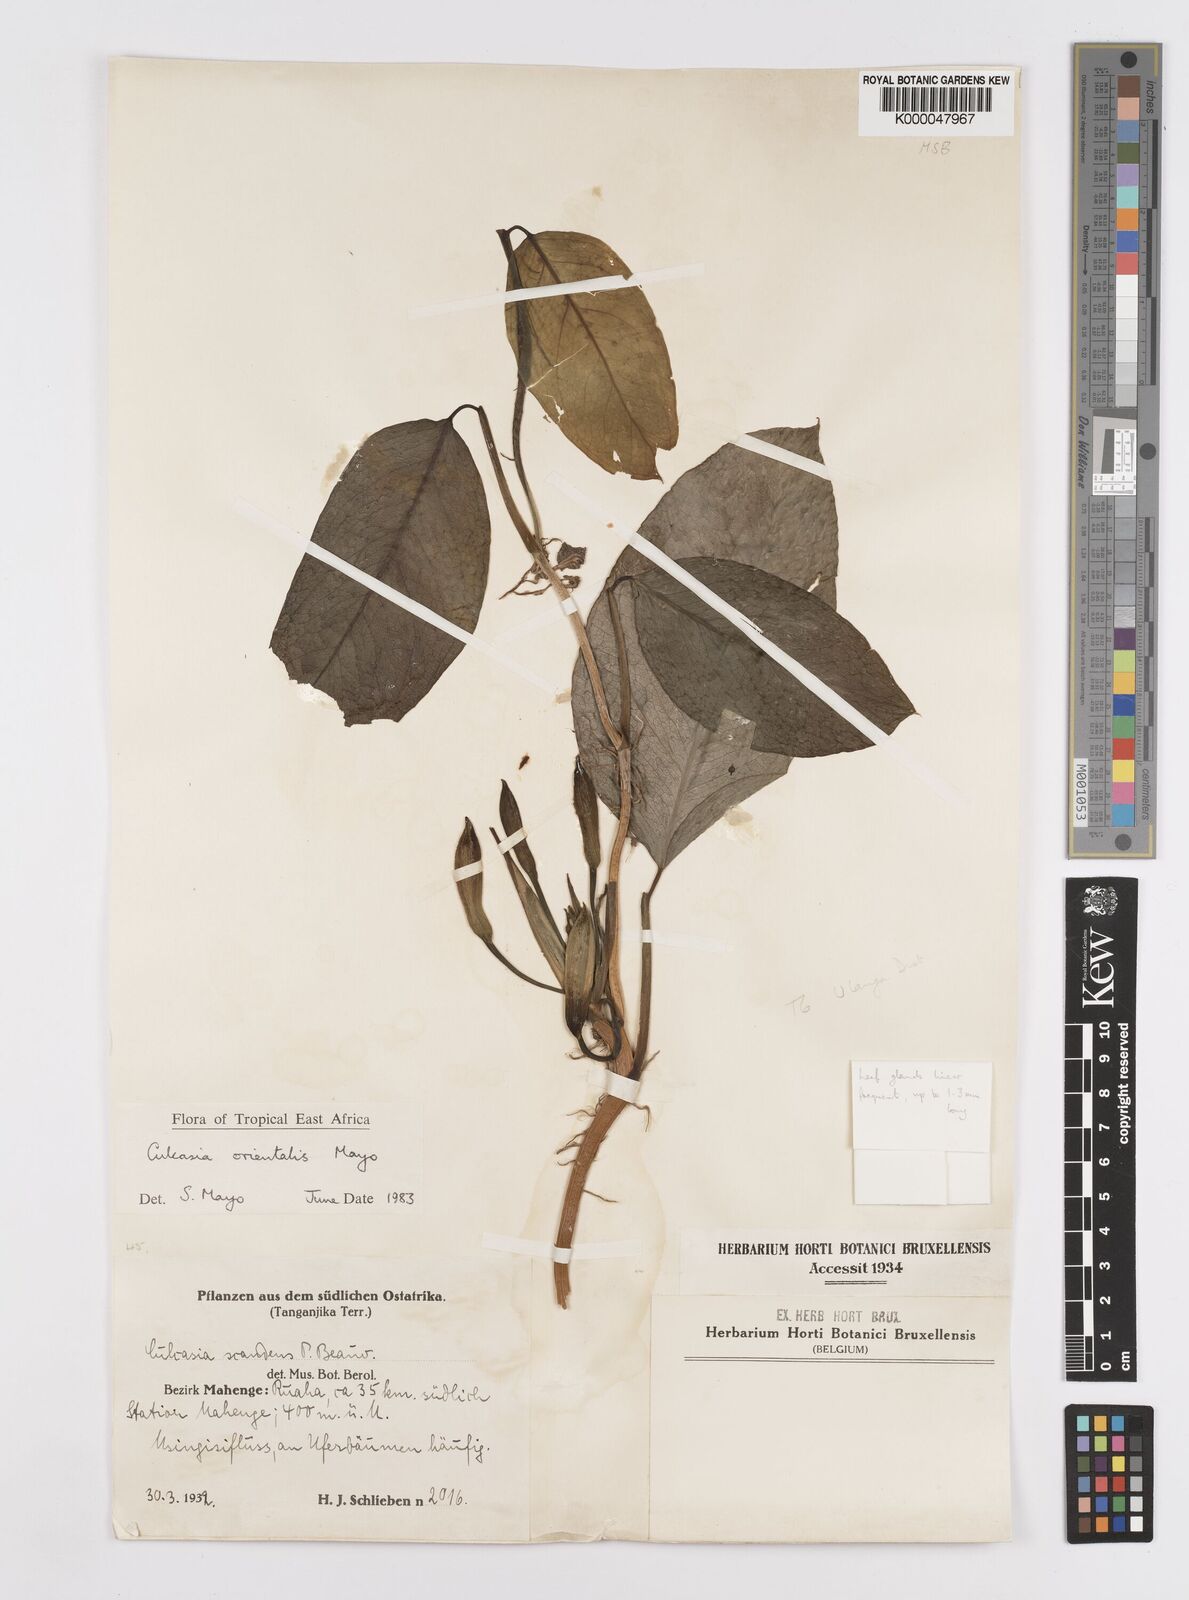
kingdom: Plantae
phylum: Tracheophyta
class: Liliopsida
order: Alismatales
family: Araceae
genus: Culcasia
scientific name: Culcasia orientalis
